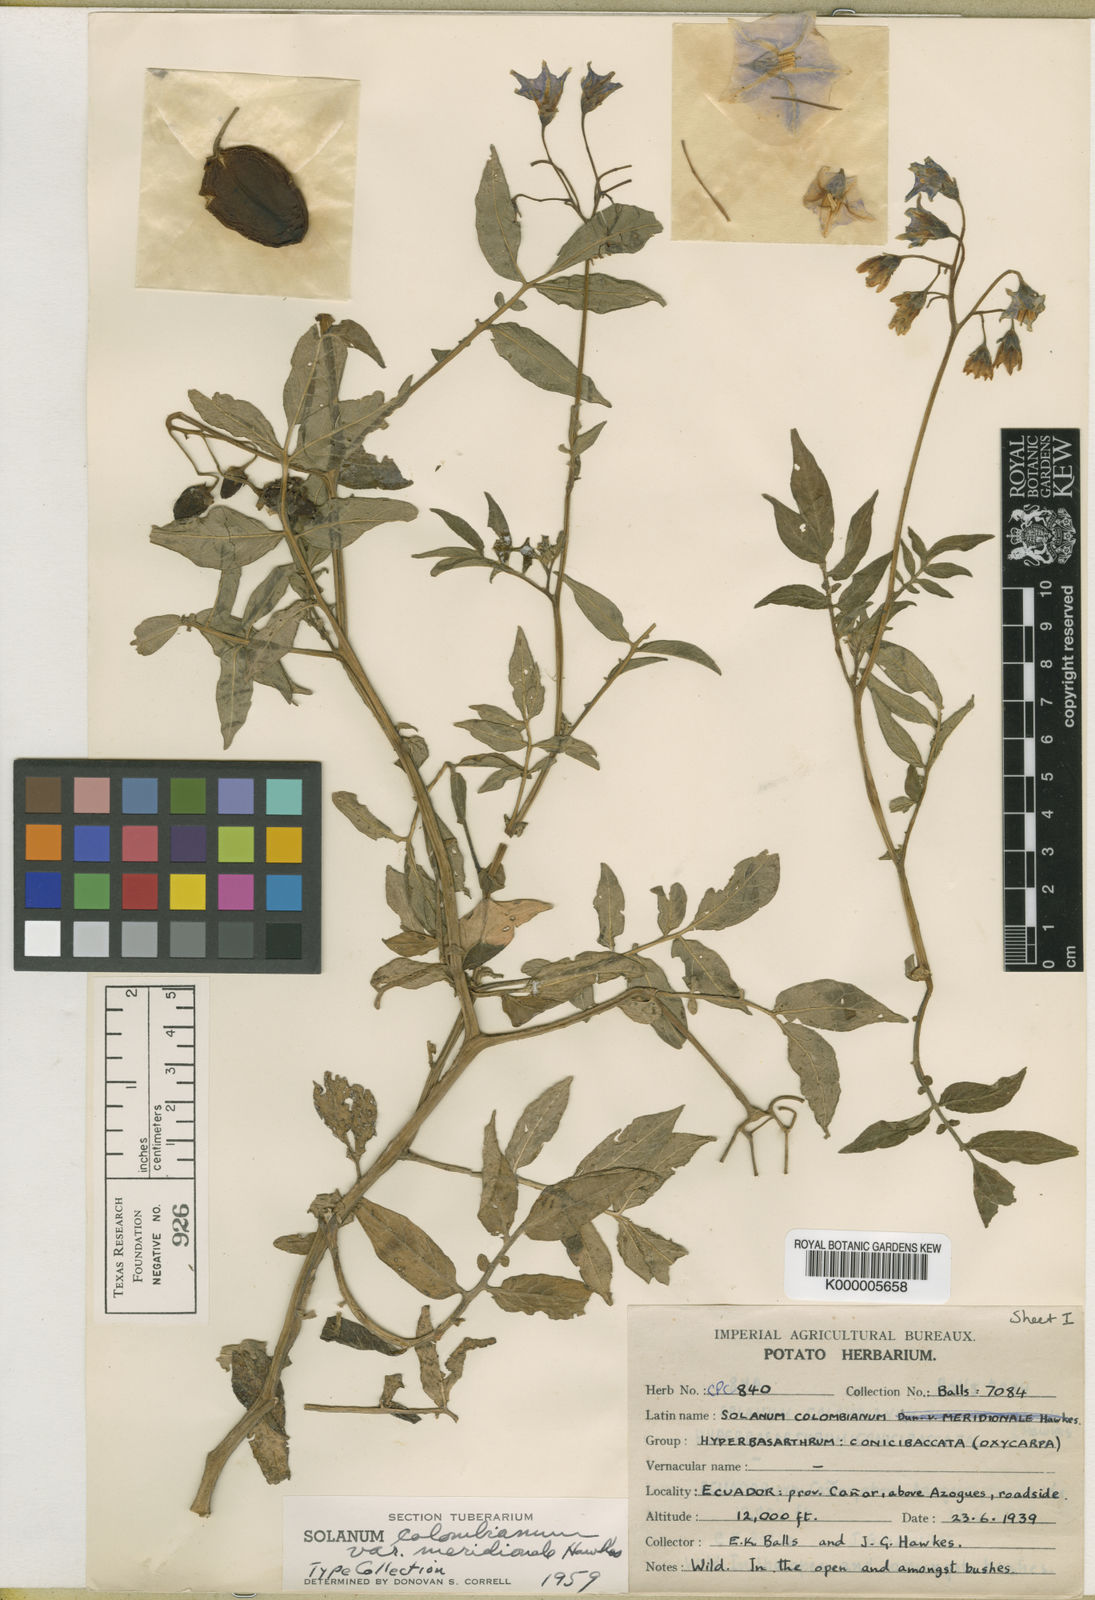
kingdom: Plantae
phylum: Tracheophyta
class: Magnoliopsida
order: Solanales
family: Solanaceae
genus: Solanum
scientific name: Solanum colombianum
